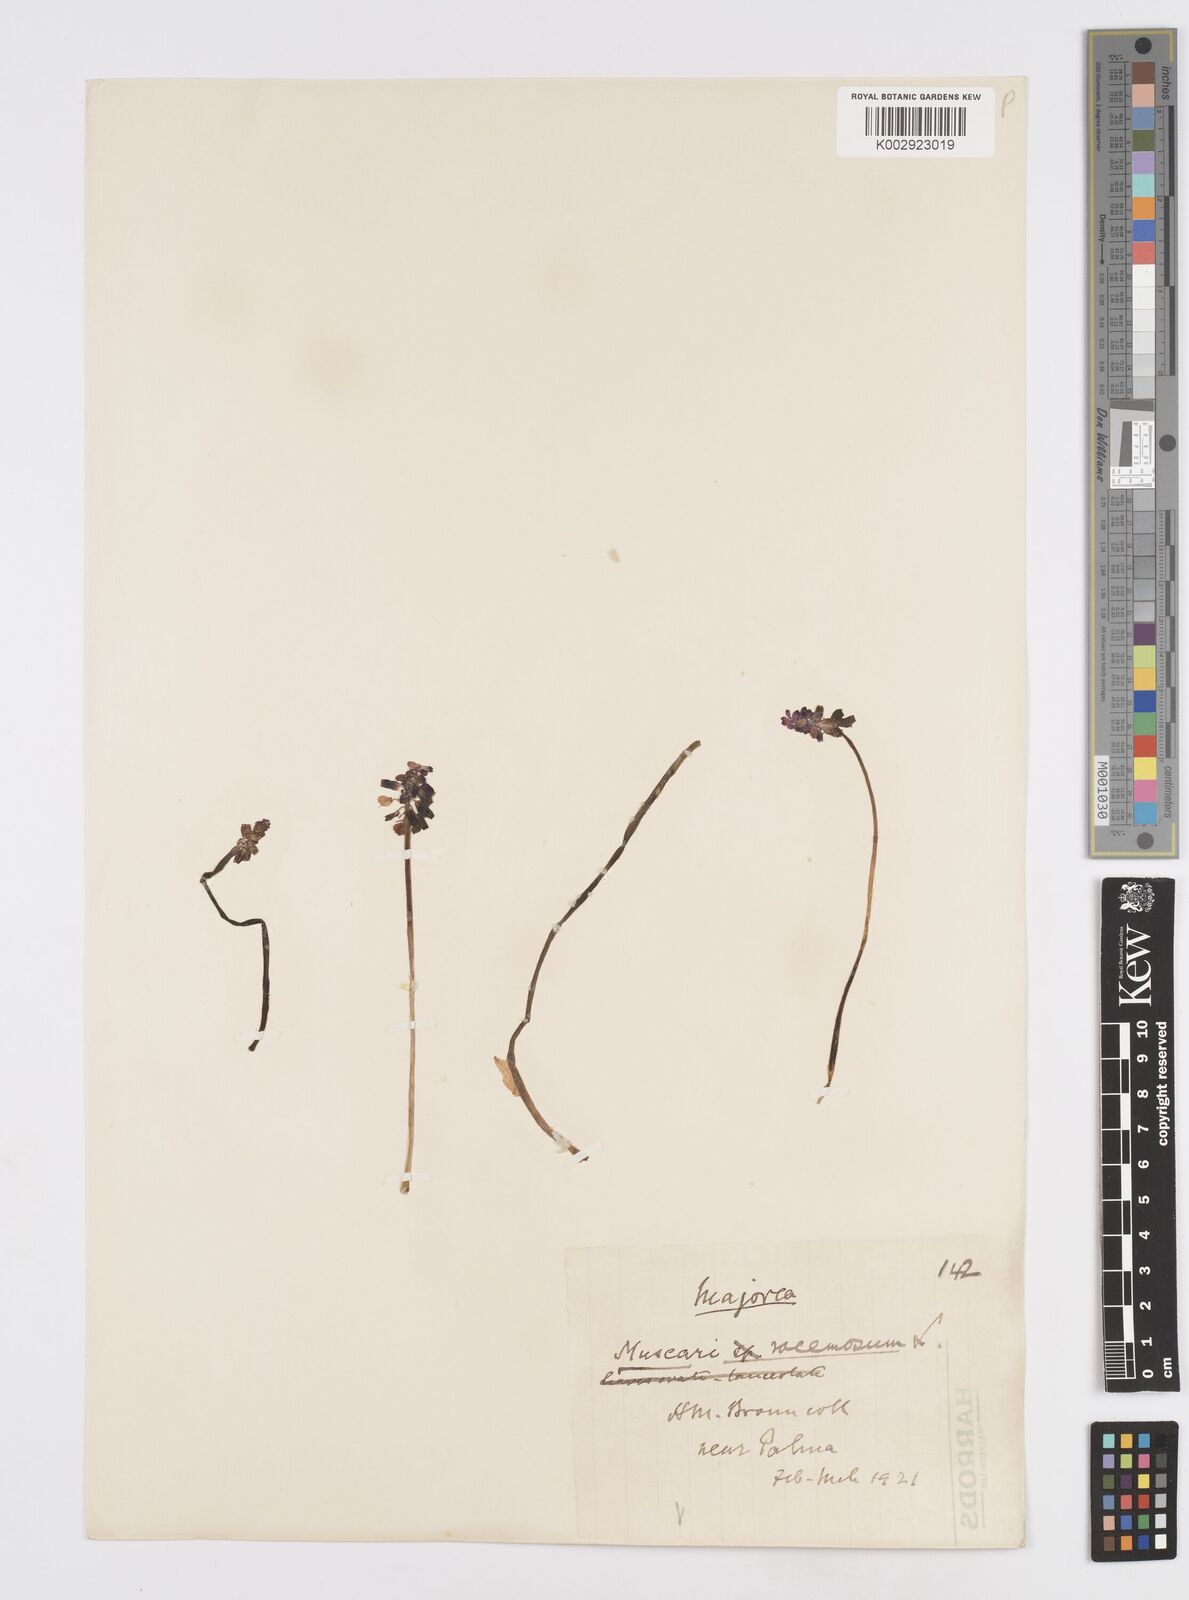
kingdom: Plantae
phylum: Tracheophyta
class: Liliopsida
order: Asparagales
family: Asparagaceae
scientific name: Asparagaceae
